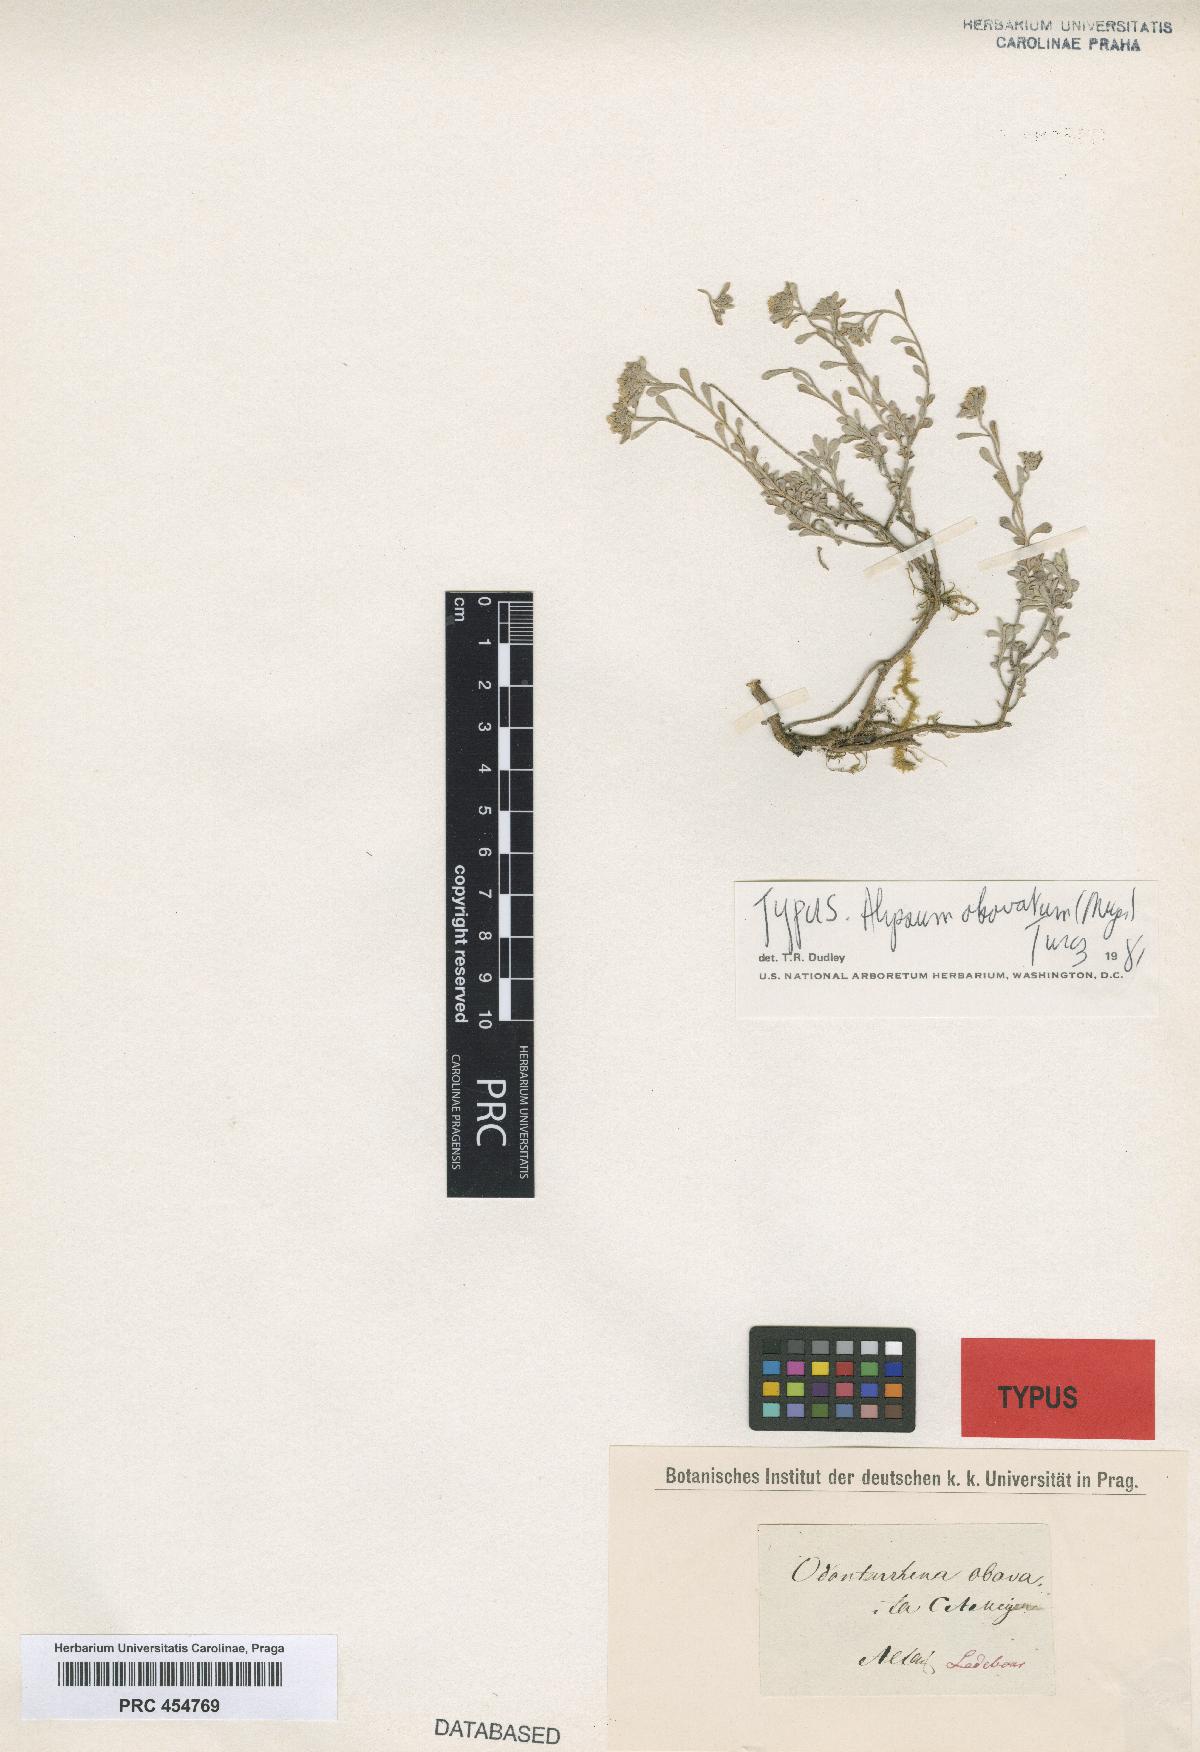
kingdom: Plantae
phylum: Tracheophyta
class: Magnoliopsida
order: Brassicales
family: Brassicaceae
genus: Odontarrhena
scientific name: Odontarrhena obovata
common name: American alyssum
